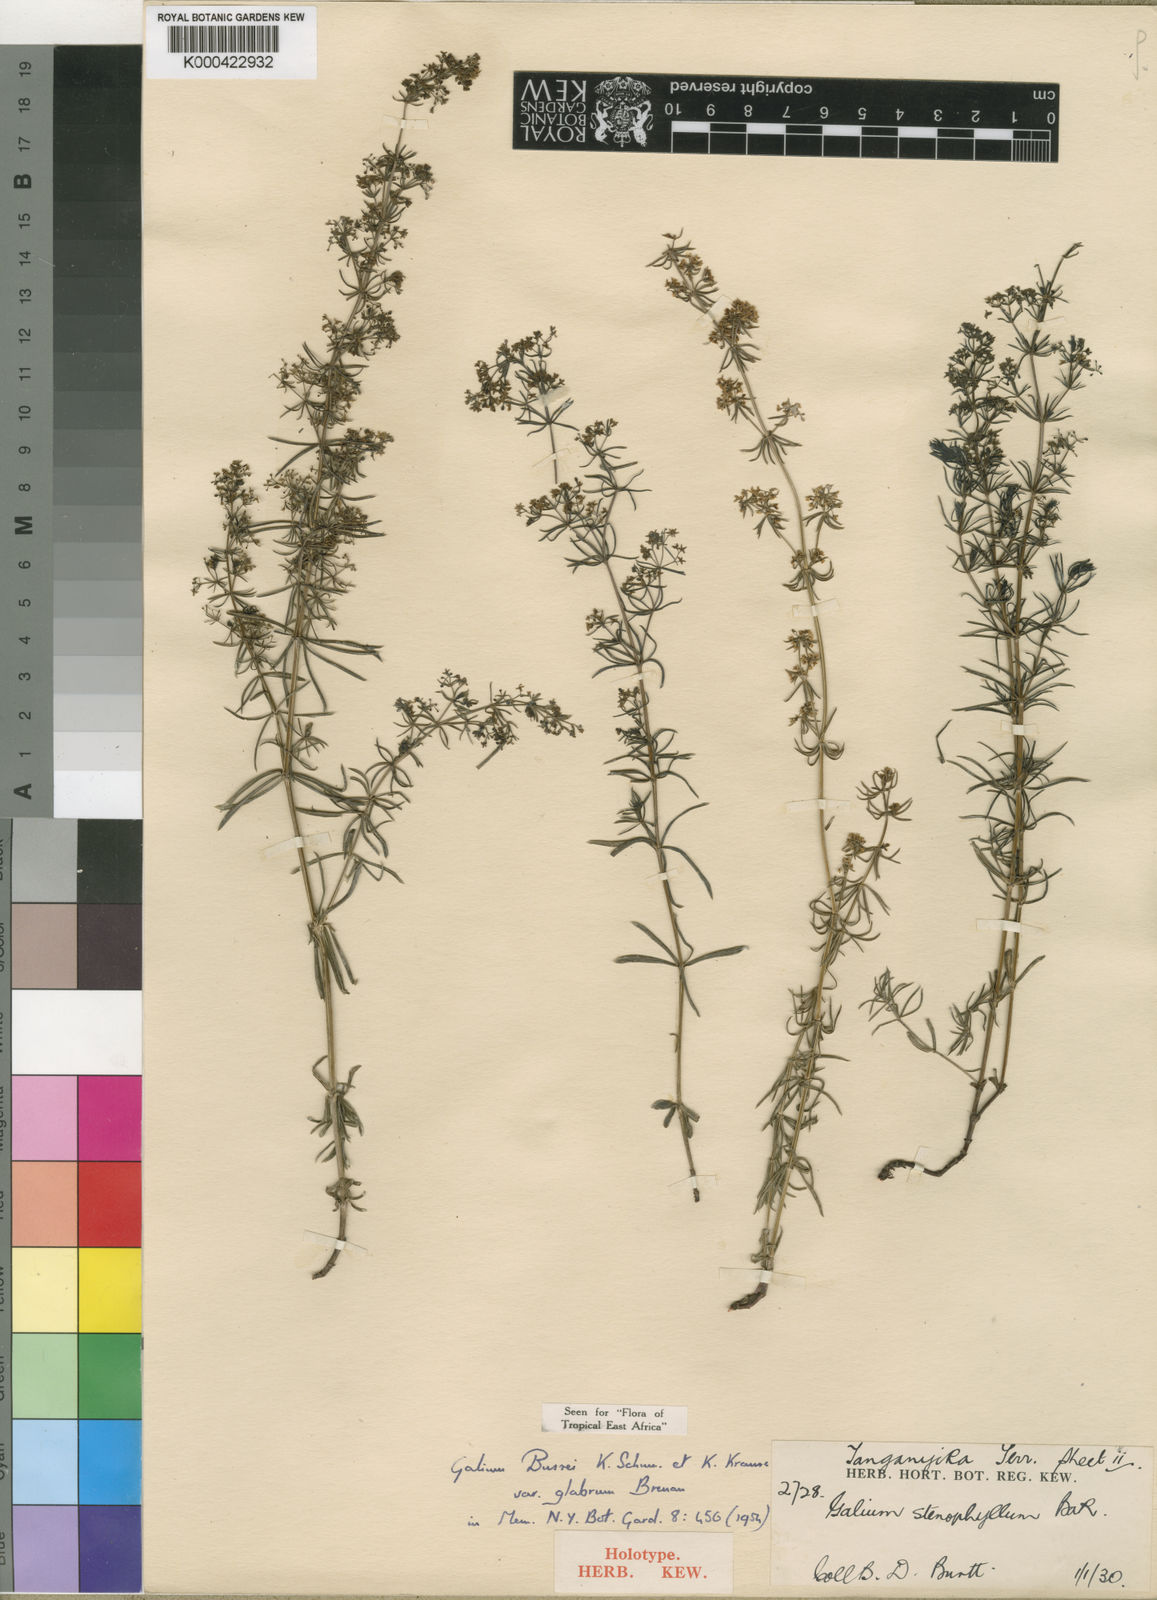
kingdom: Plantae
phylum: Tracheophyta
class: Magnoliopsida
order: Gentianales
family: Rubiaceae
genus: Galium
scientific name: Galium bussei
